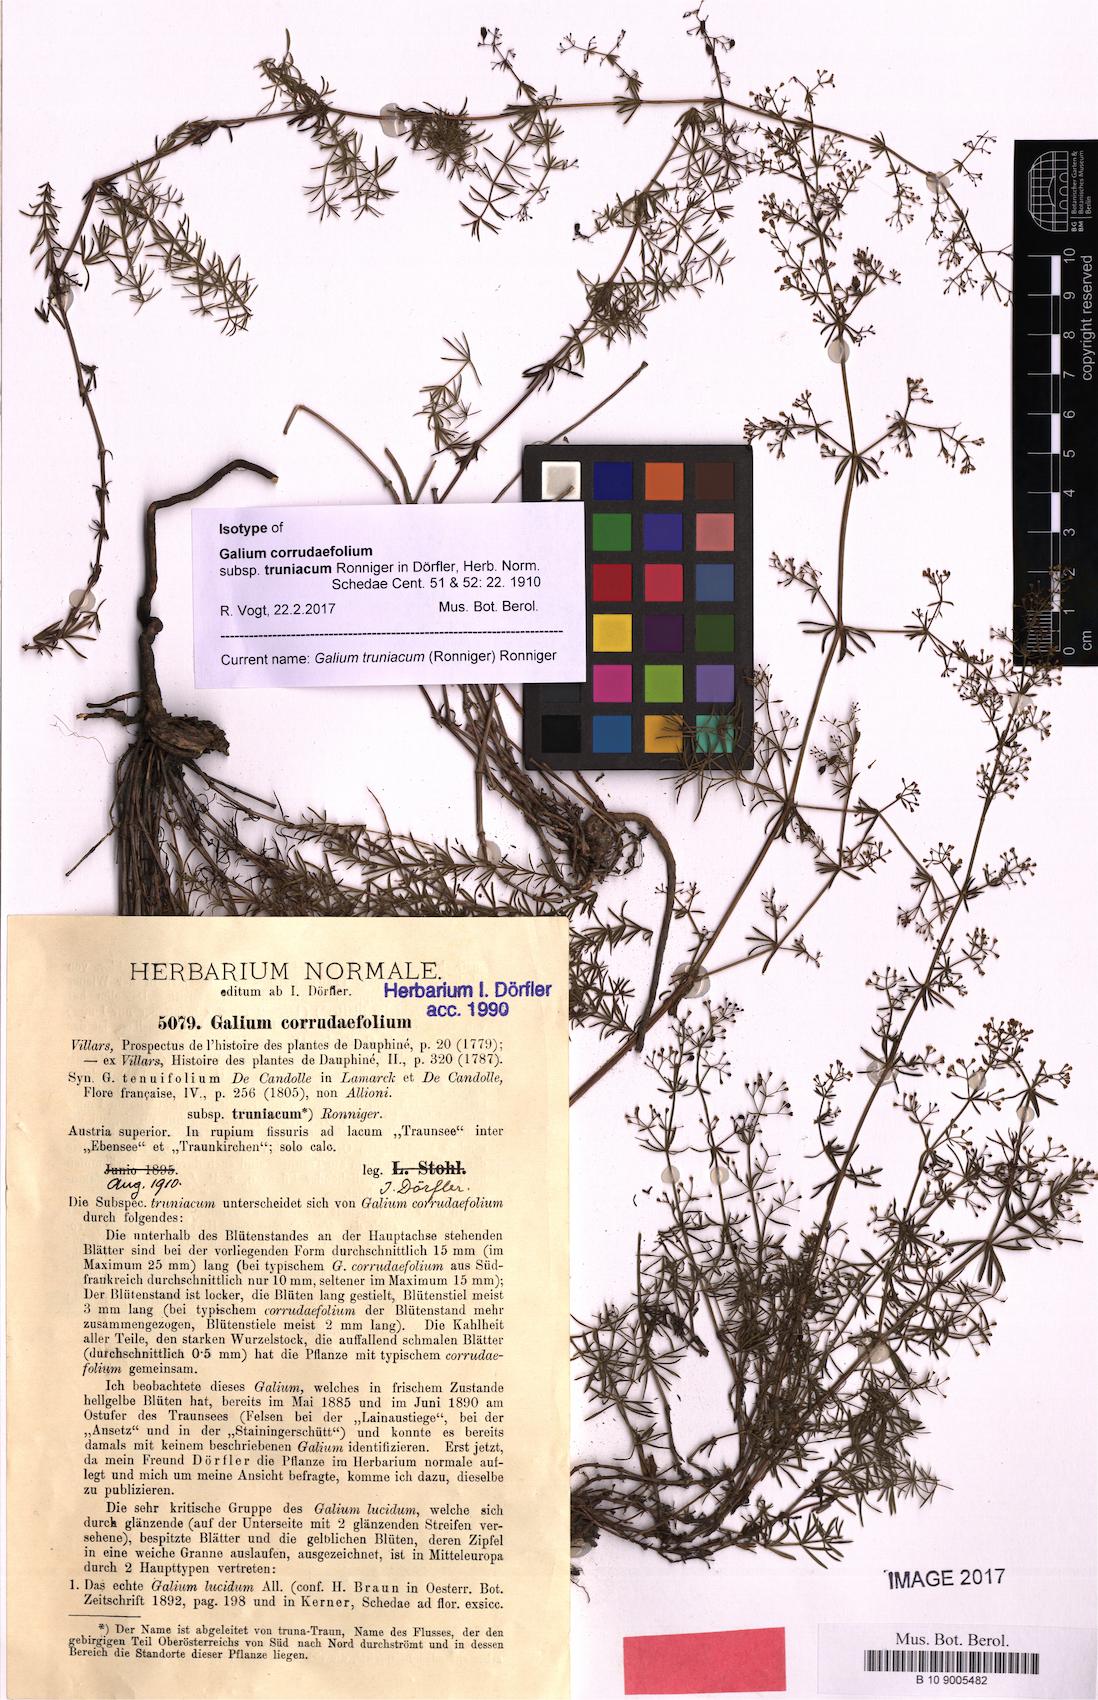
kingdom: Plantae
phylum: Tracheophyta
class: Magnoliopsida
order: Gentianales
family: Rubiaceae
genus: Galium
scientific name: Galium truniacum
